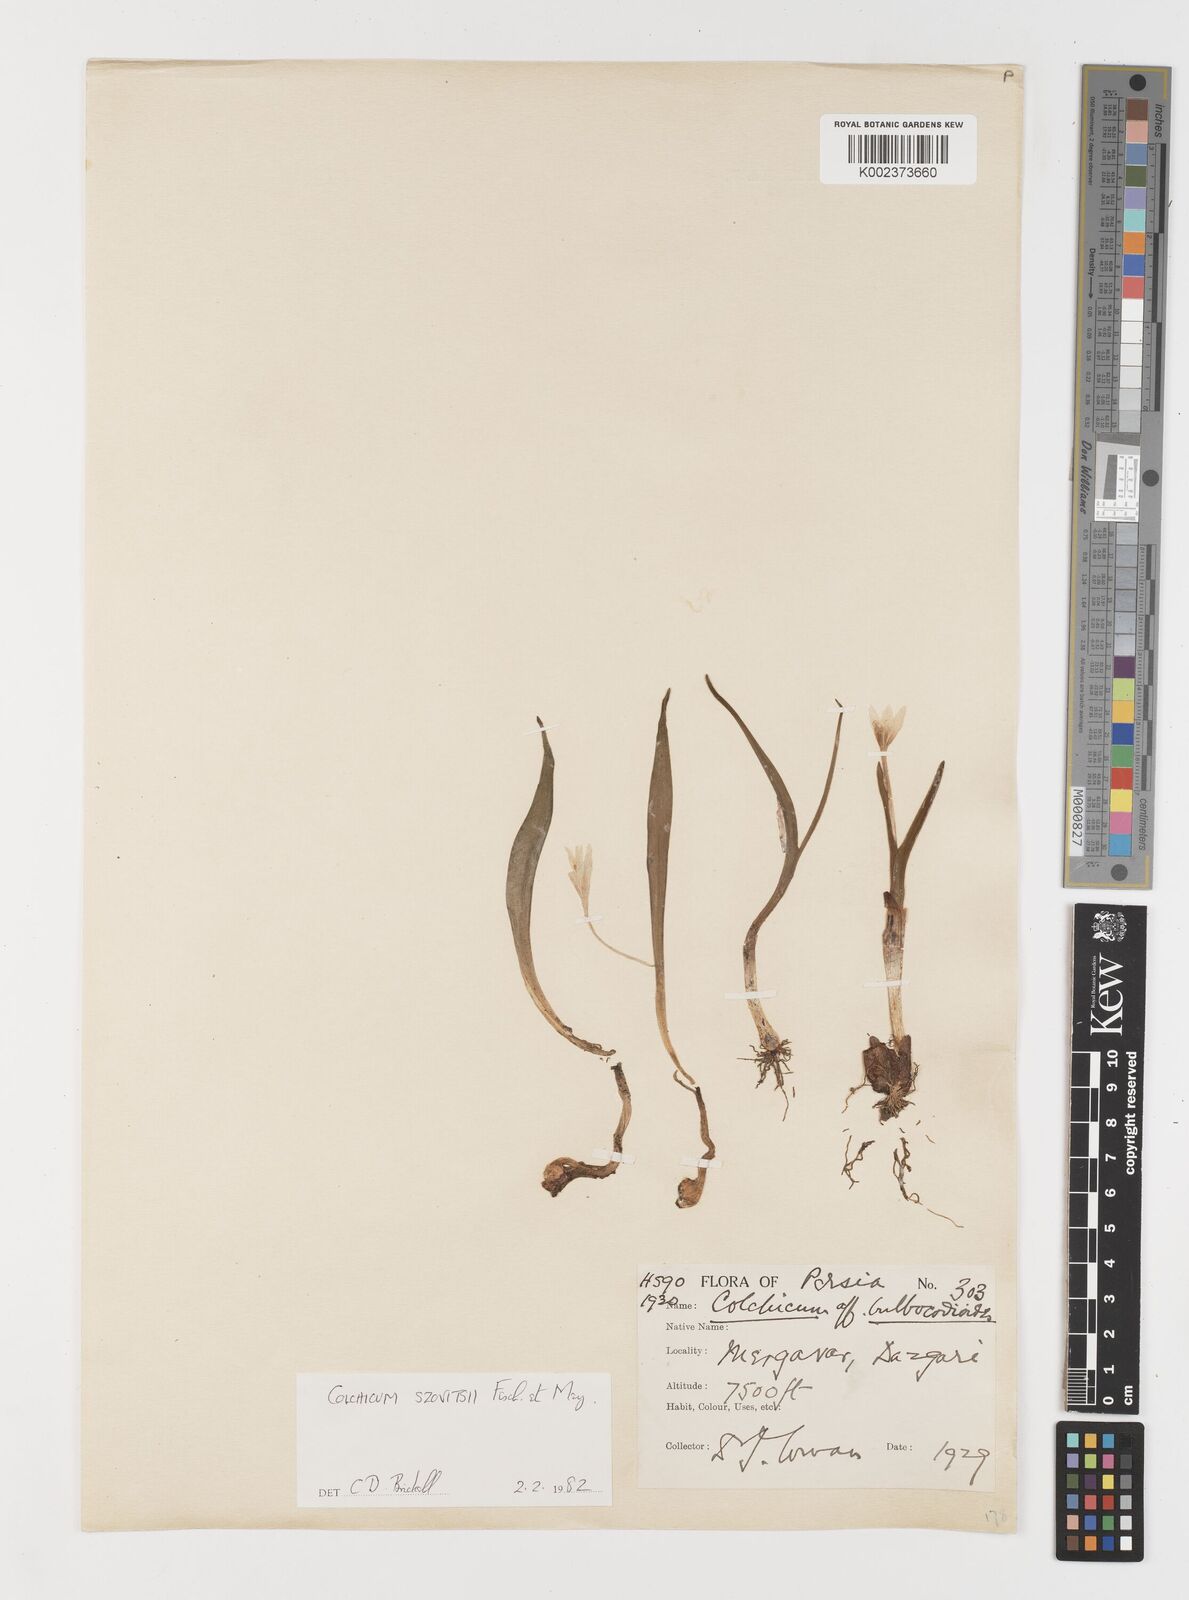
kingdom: Plantae
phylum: Tracheophyta
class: Liliopsida
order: Liliales
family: Colchicaceae
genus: Colchicum
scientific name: Colchicum szovitsii
